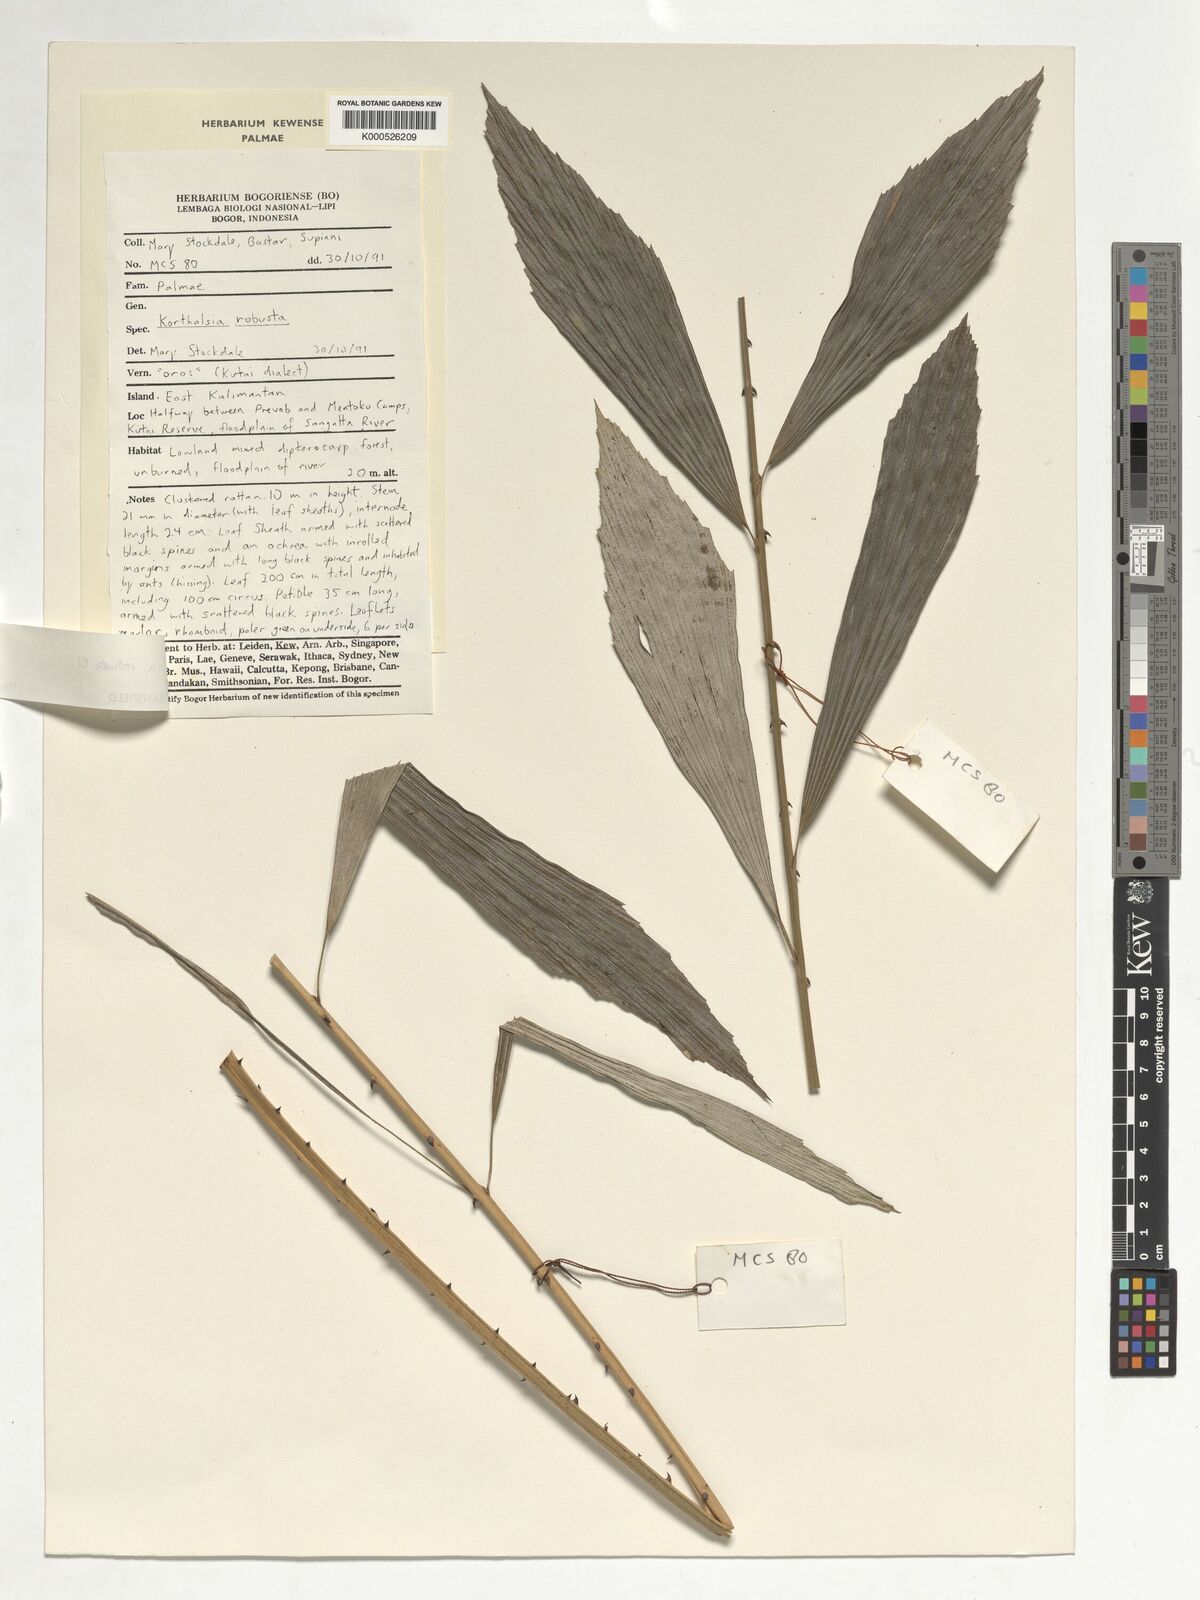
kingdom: Plantae
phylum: Tracheophyta
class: Liliopsida
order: Arecales
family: Arecaceae
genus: Korthalsia
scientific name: Korthalsia robusta
